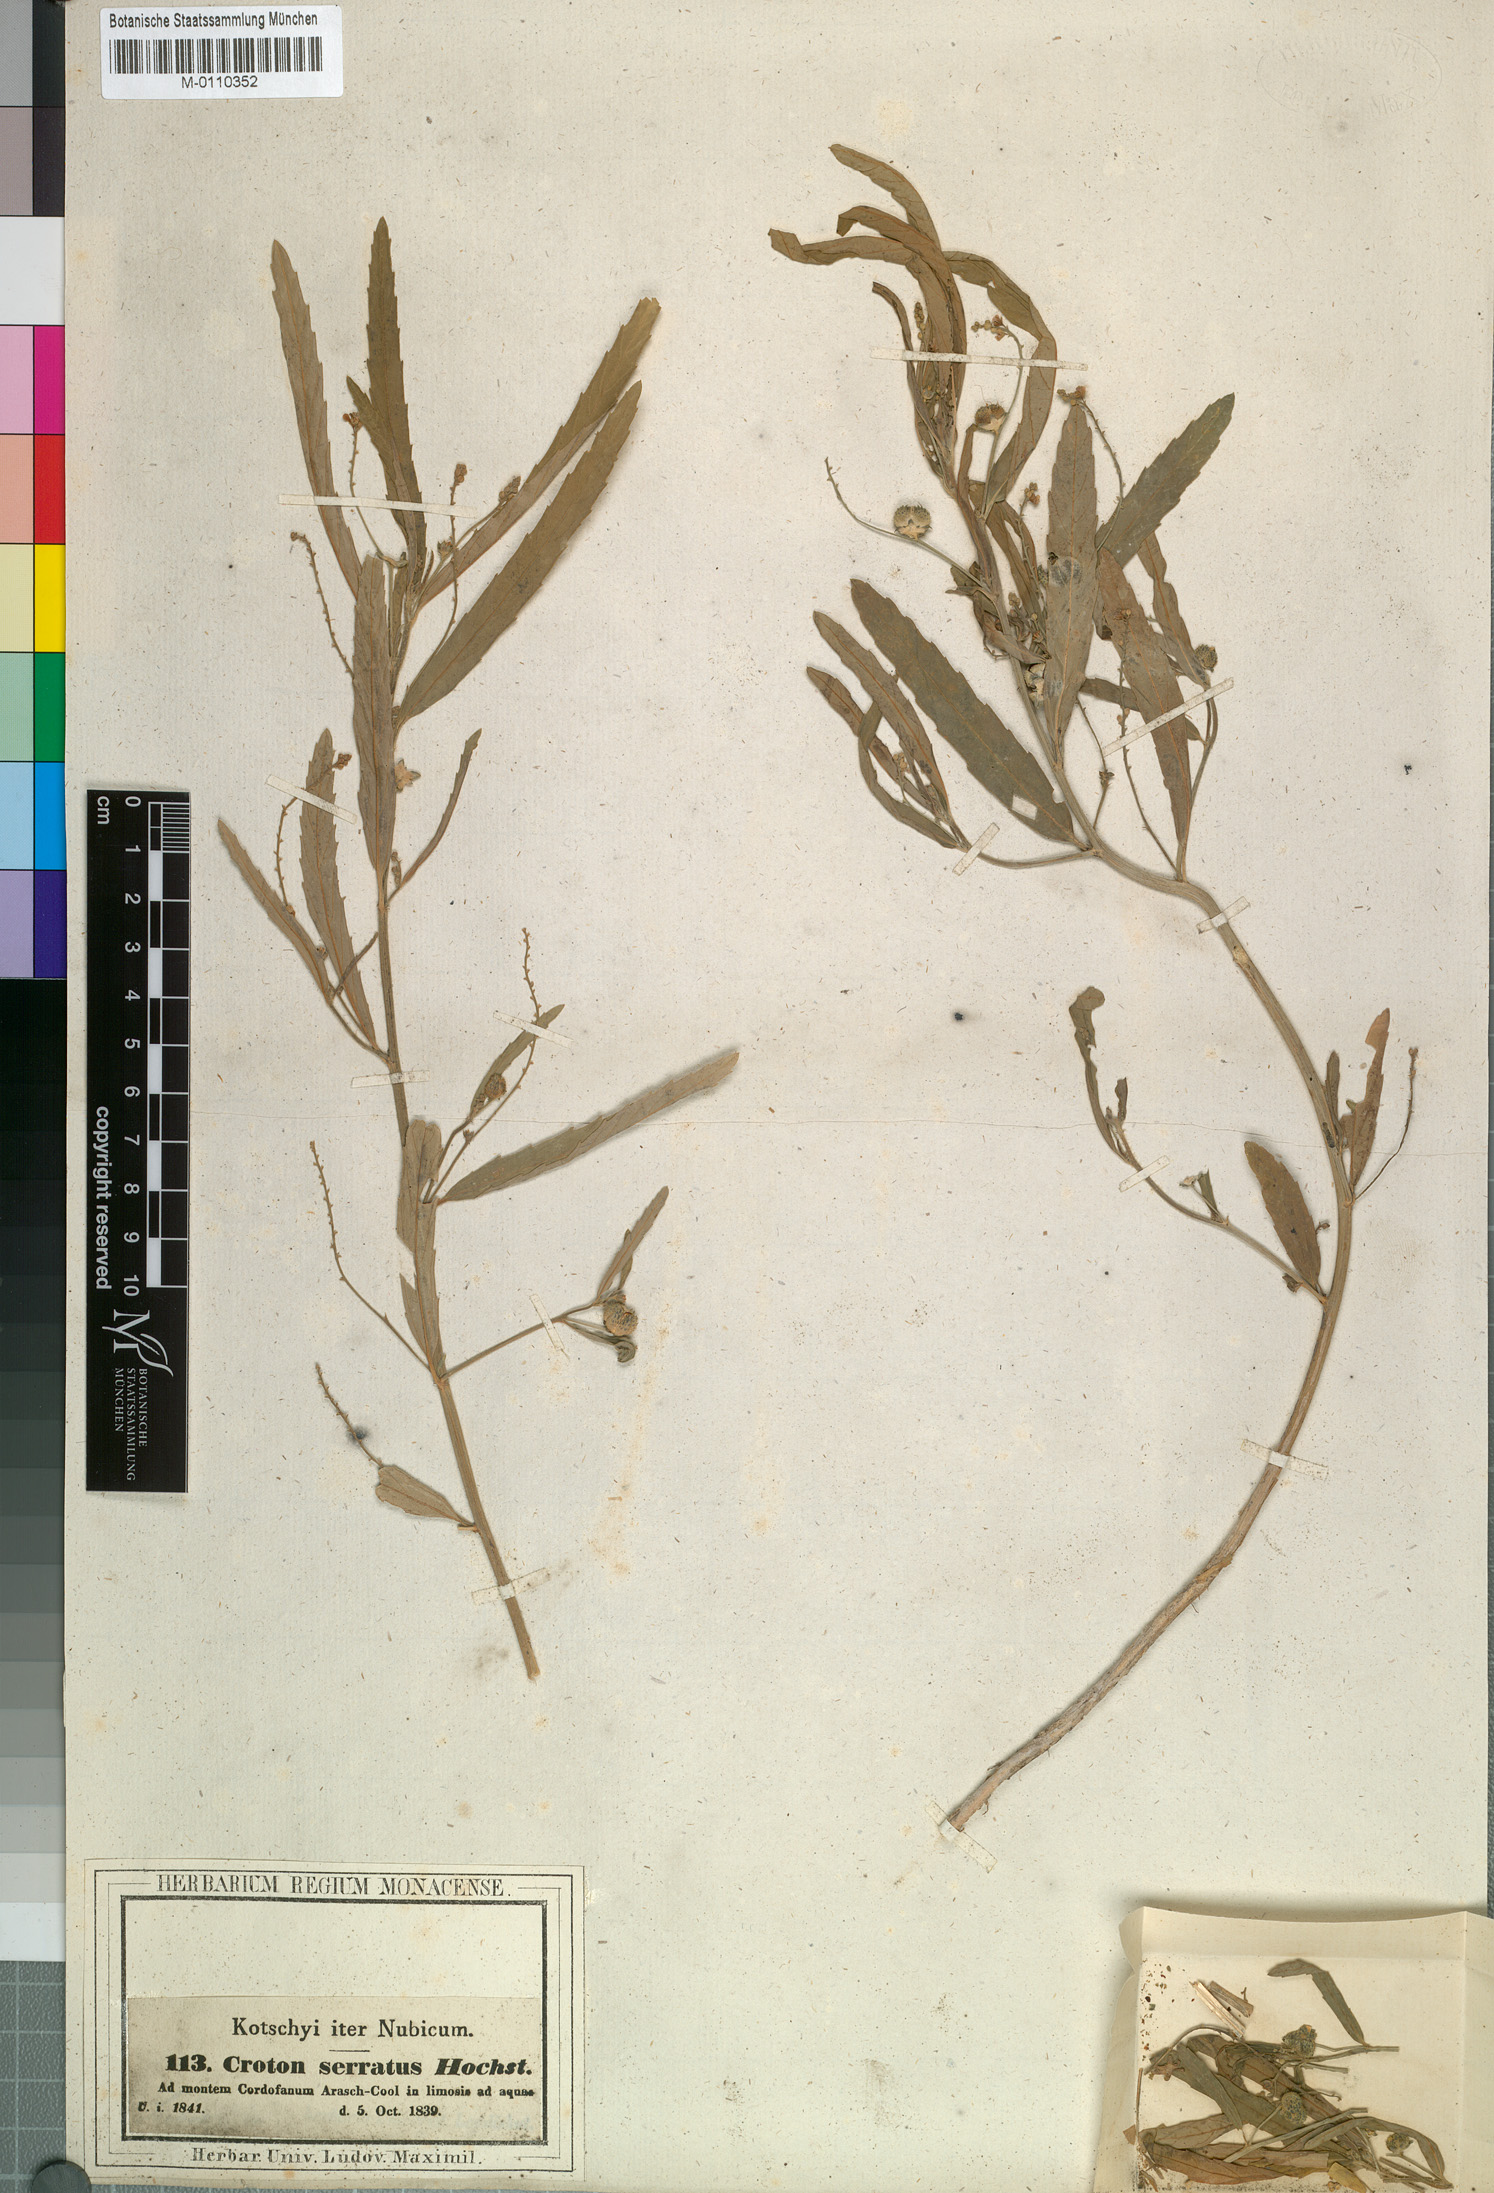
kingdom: Plantae
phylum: Tracheophyta
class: Magnoliopsida
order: Malpighiales
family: Euphorbiaceae
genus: Caperonia
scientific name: Caperonia serrata
